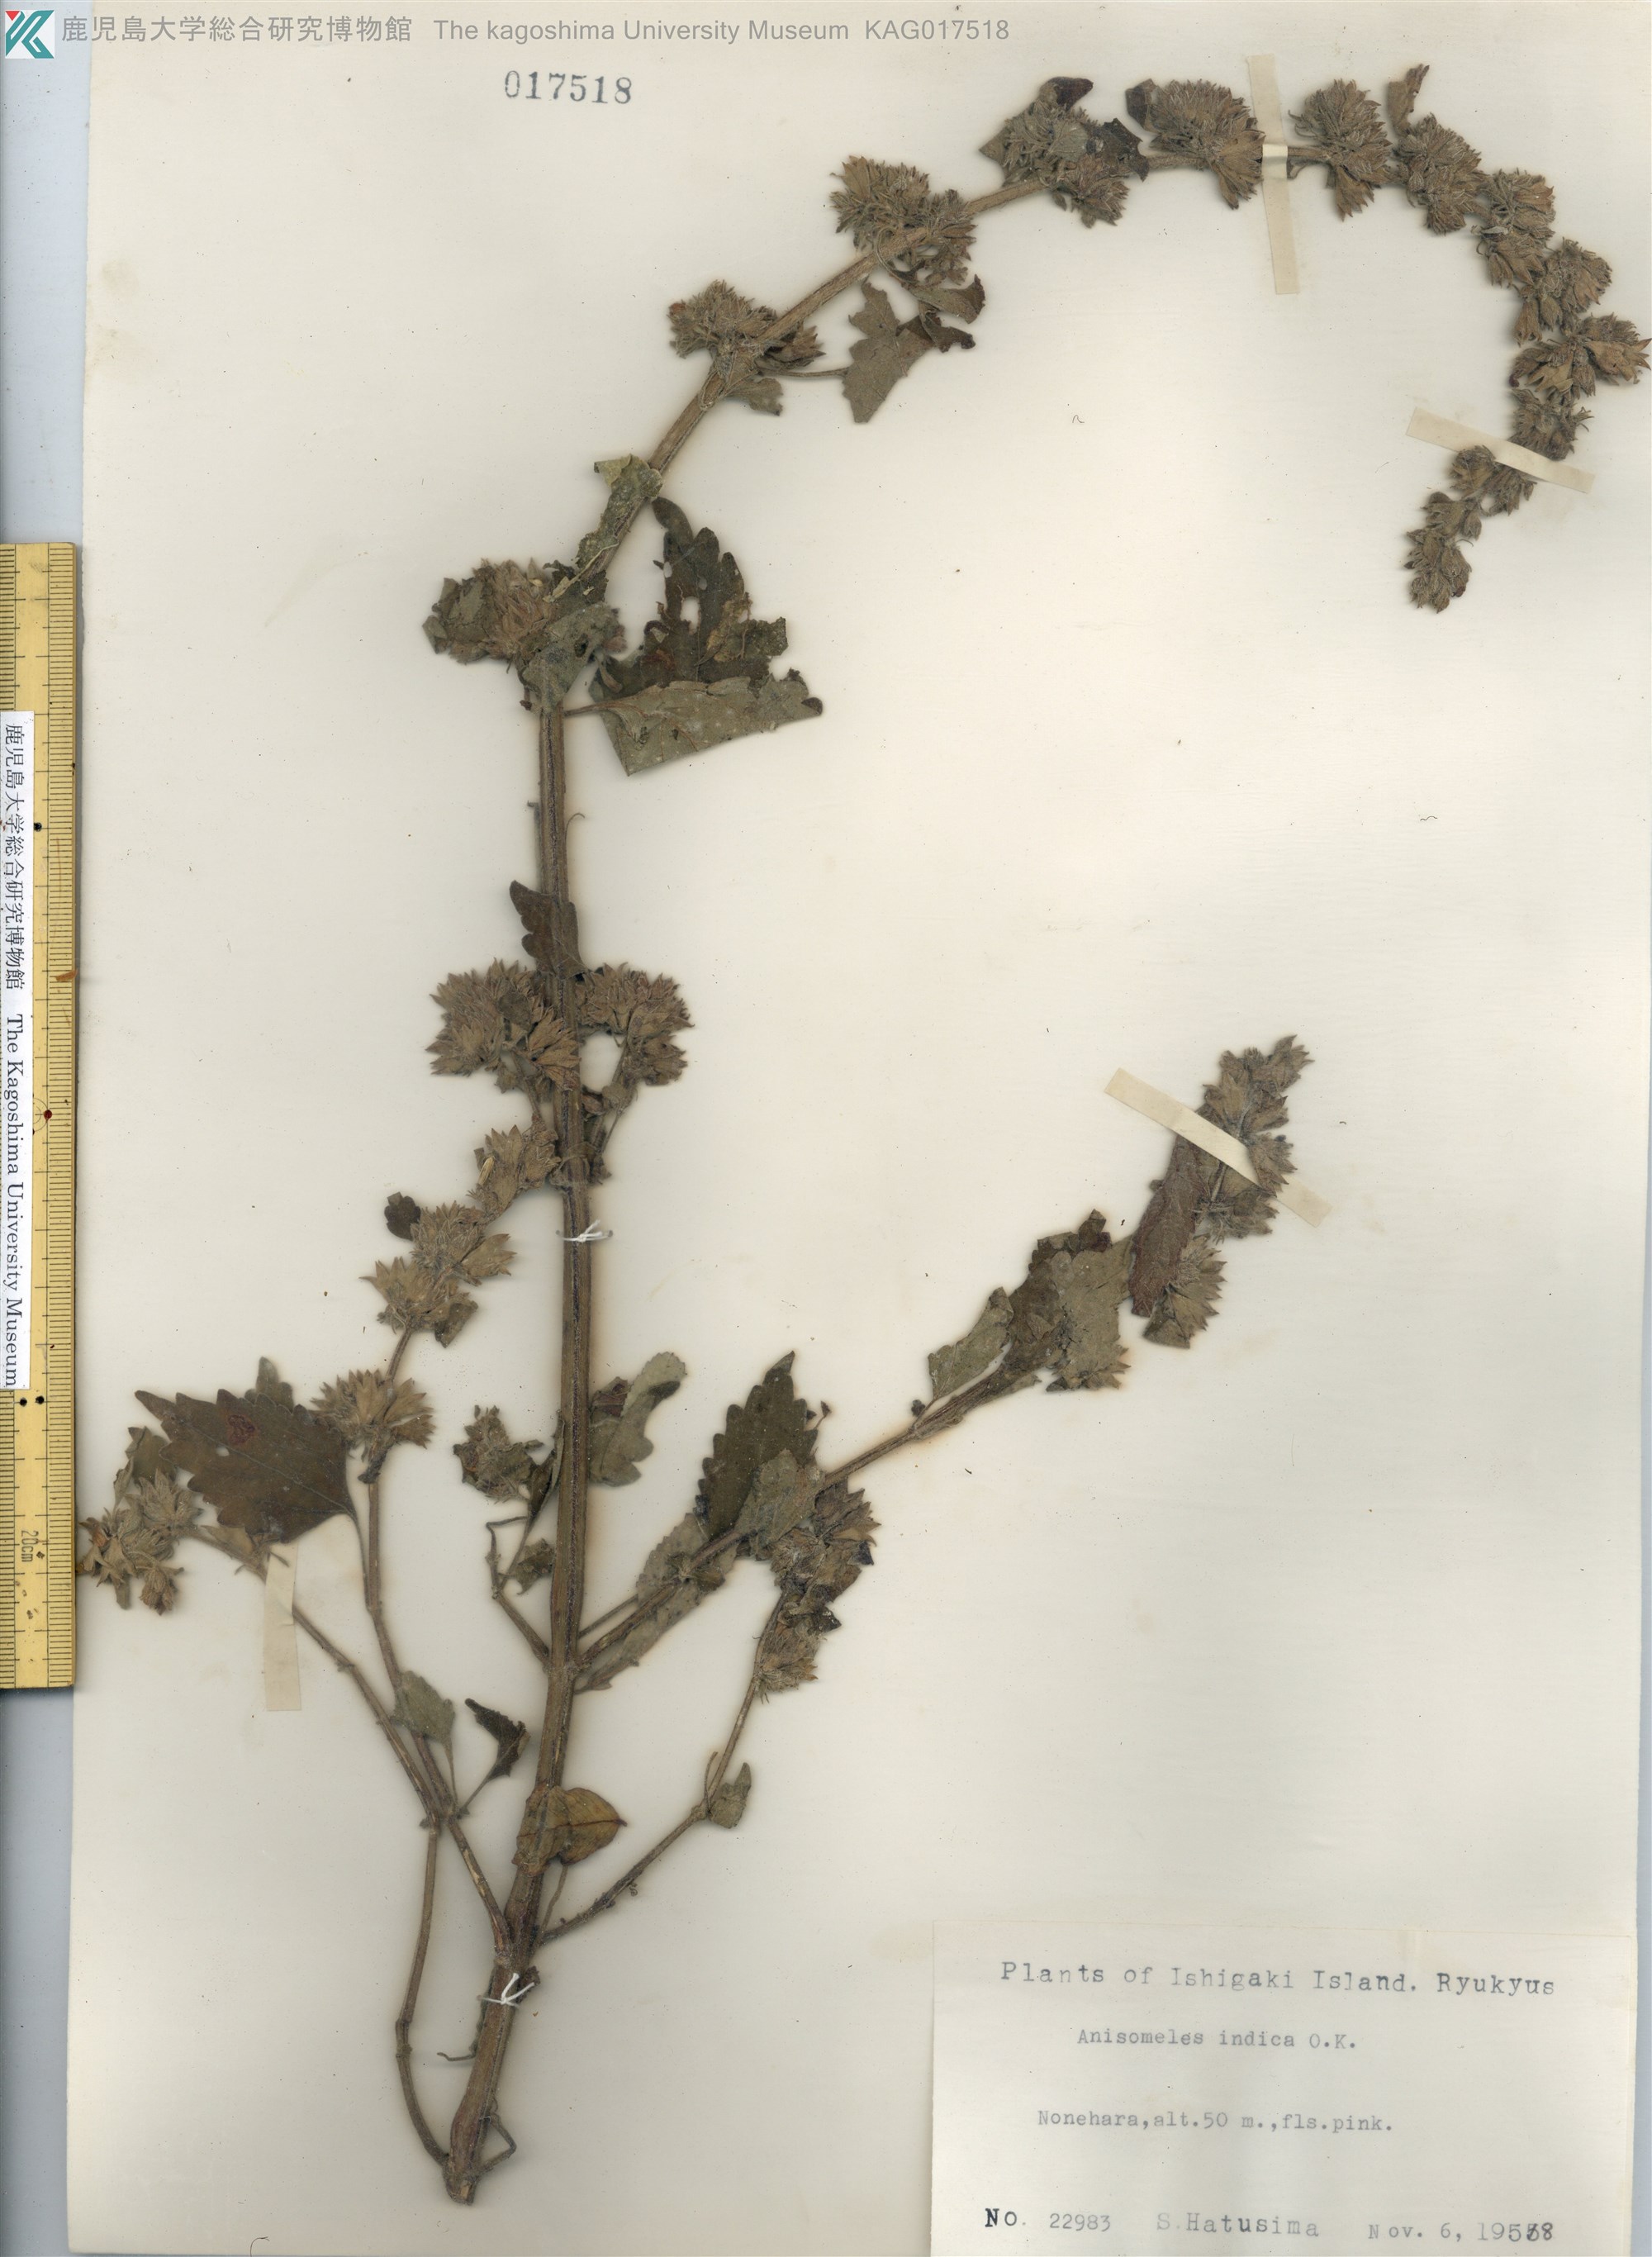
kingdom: Plantae
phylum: Tracheophyta
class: Magnoliopsida
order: Lamiales
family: Lamiaceae
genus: Anisomeles
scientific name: Anisomeles indica
